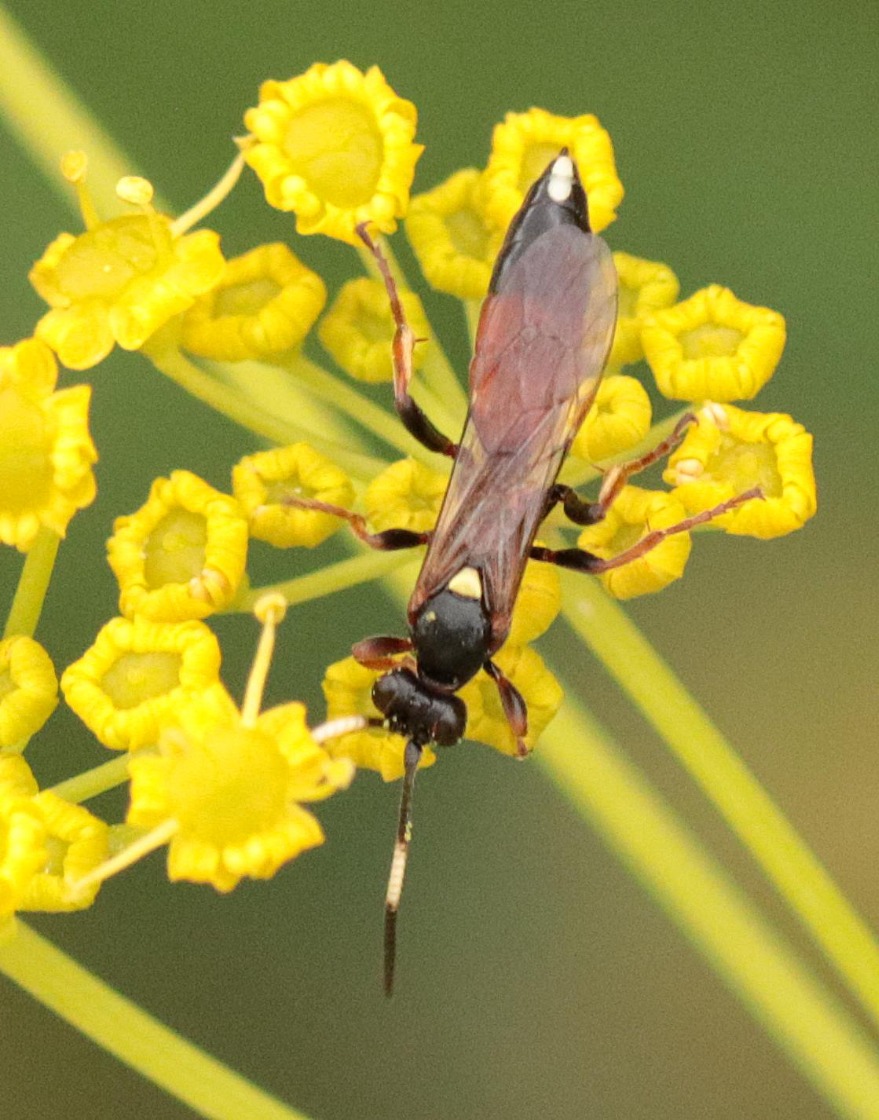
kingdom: Animalia
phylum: Arthropoda
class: Insecta
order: Hymenoptera
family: Ichneumonidae
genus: Ichneumon
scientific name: Ichneumon
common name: Ichneumon
